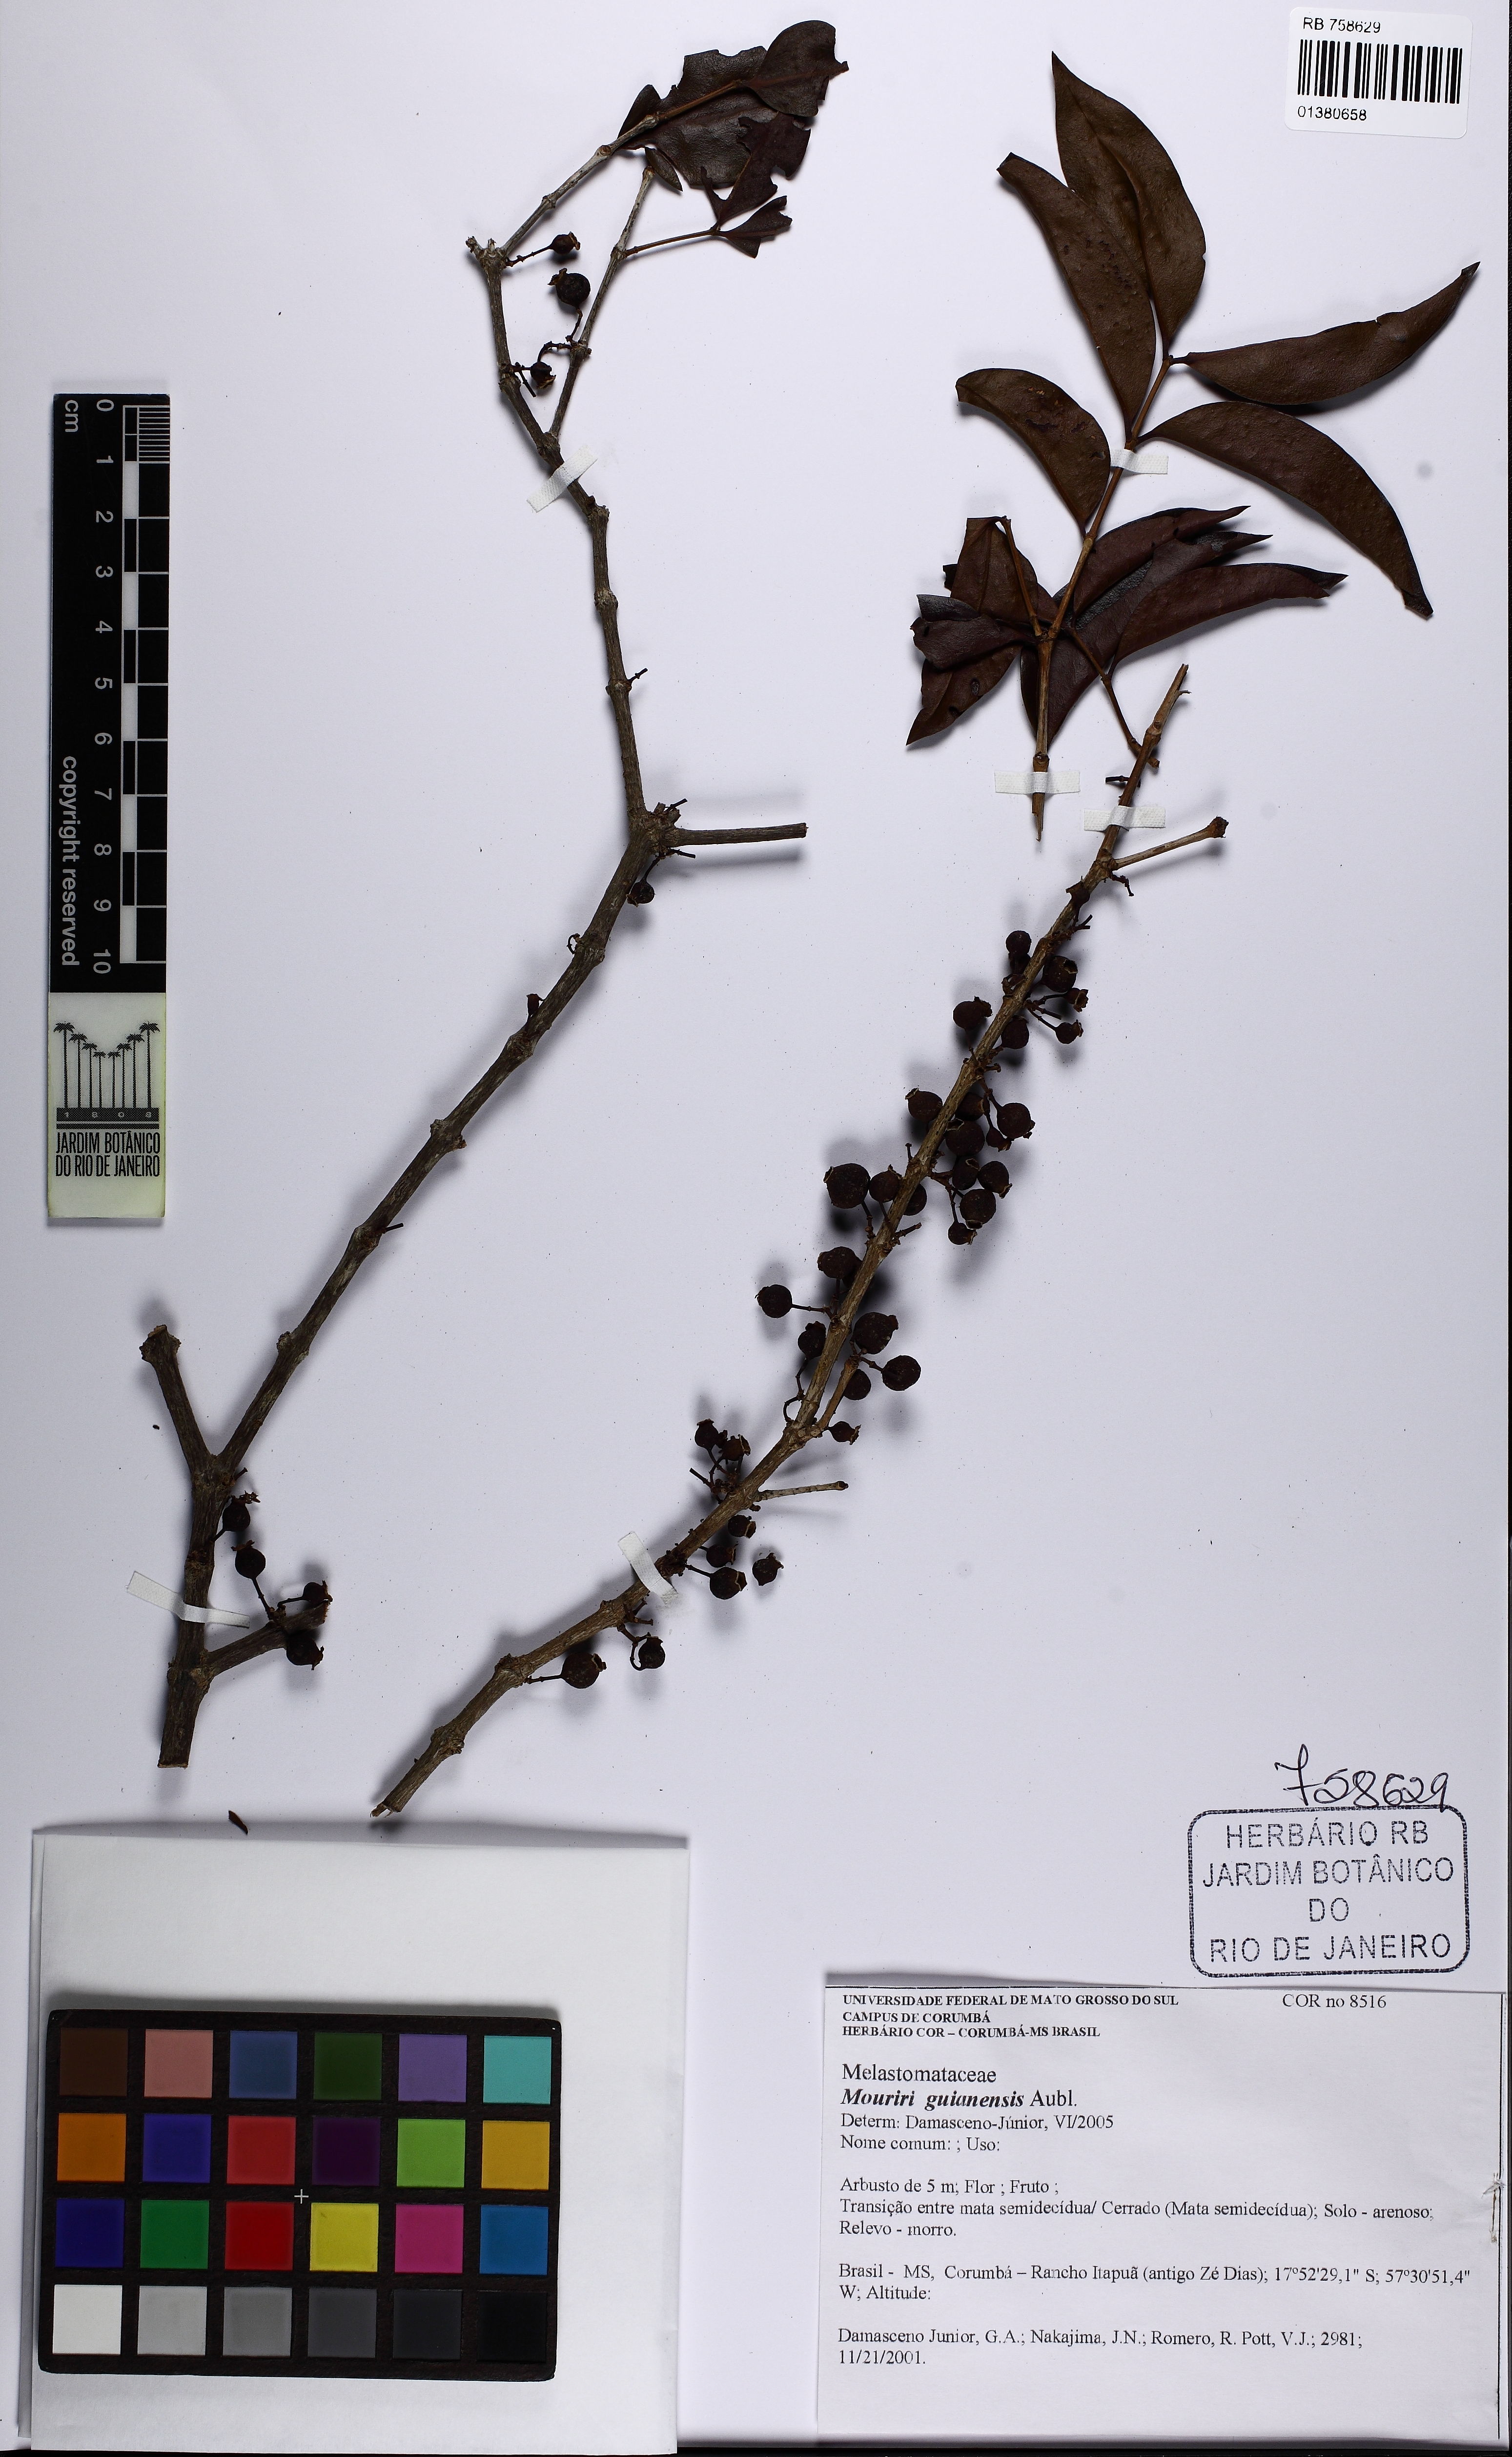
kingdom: Plantae
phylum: Tracheophyta
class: Magnoliopsida
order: Myrtales
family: Melastomataceae
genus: Mouriri
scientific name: Mouriri guianensis
